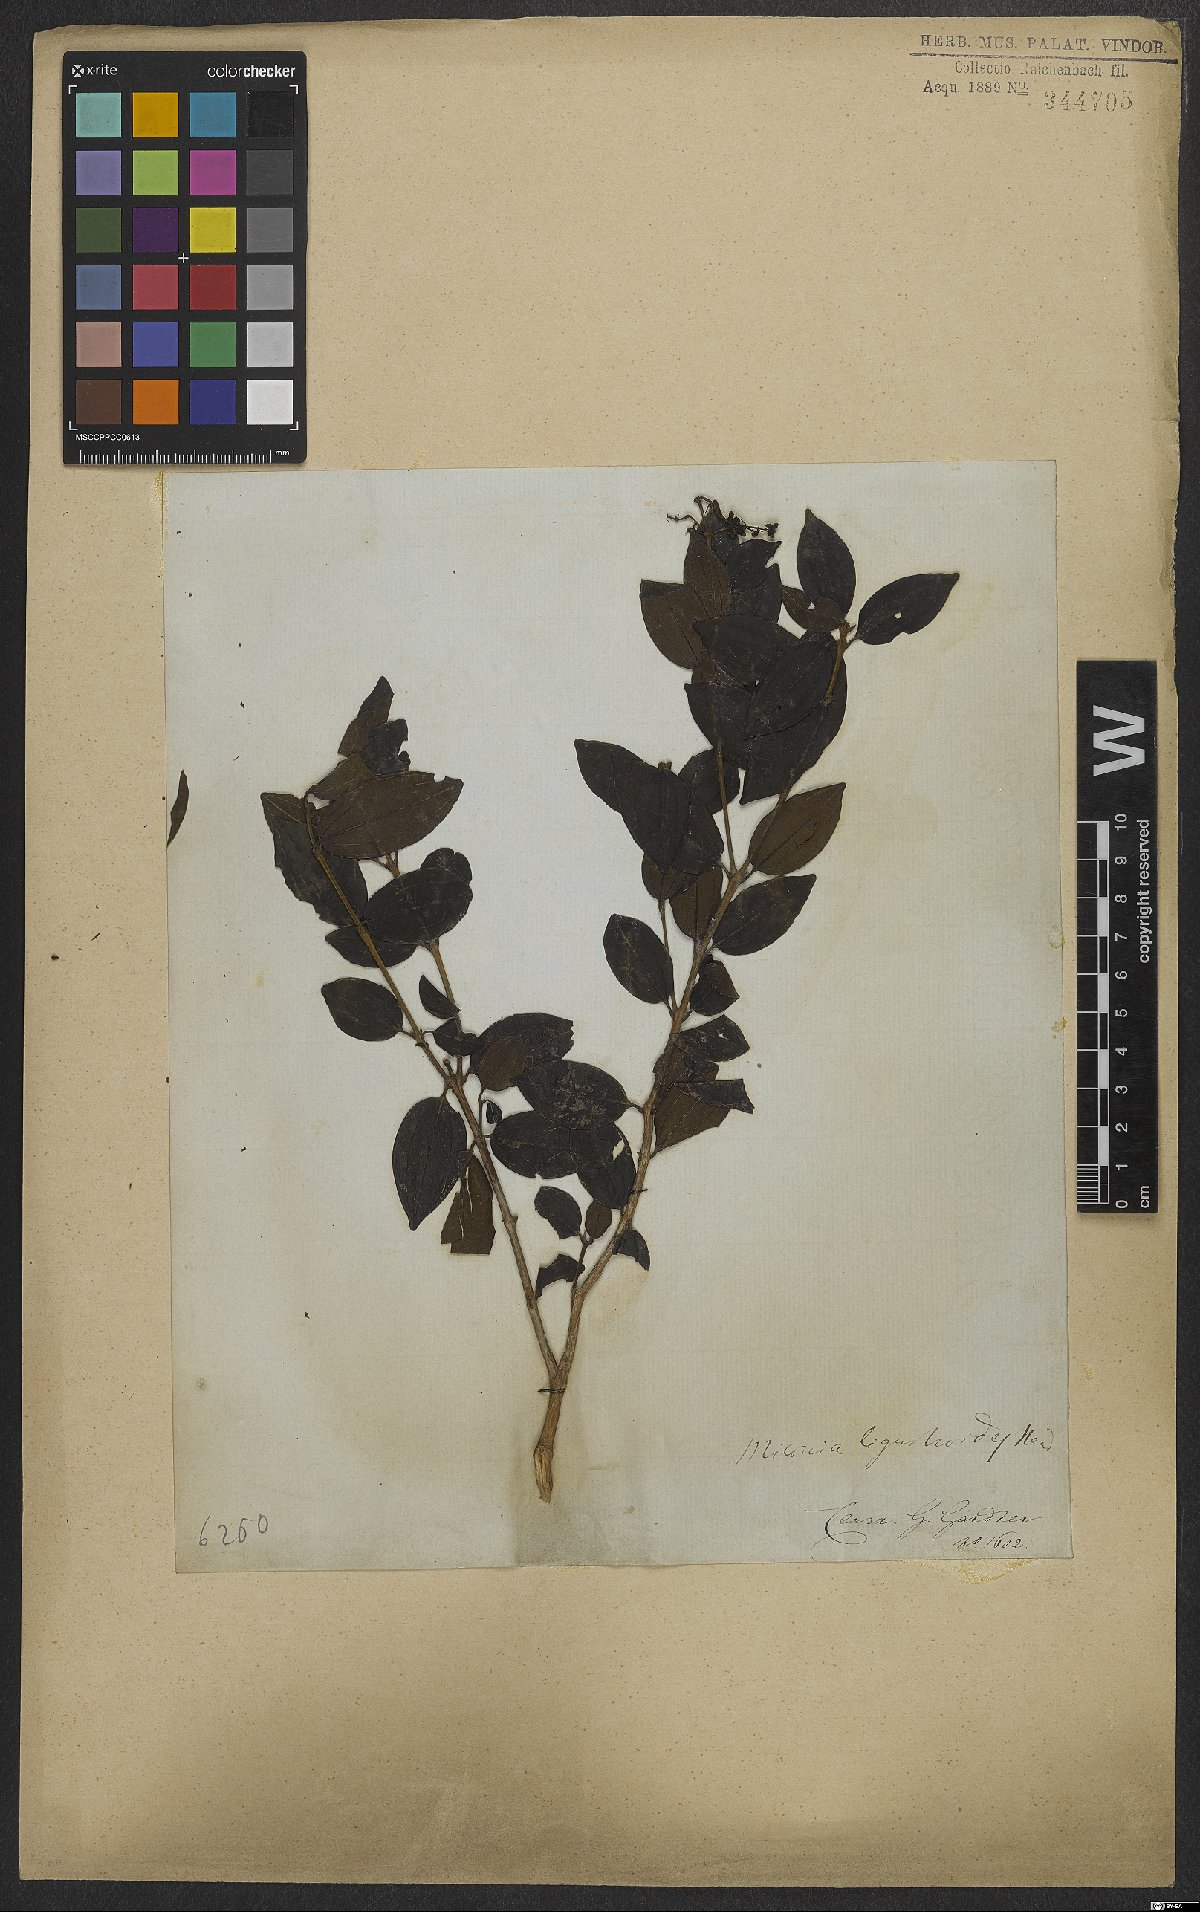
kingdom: Plantae
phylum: Tracheophyta
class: Magnoliopsida
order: Myrtales
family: Melastomataceae
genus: Miconia
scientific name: Miconia ligustroides
